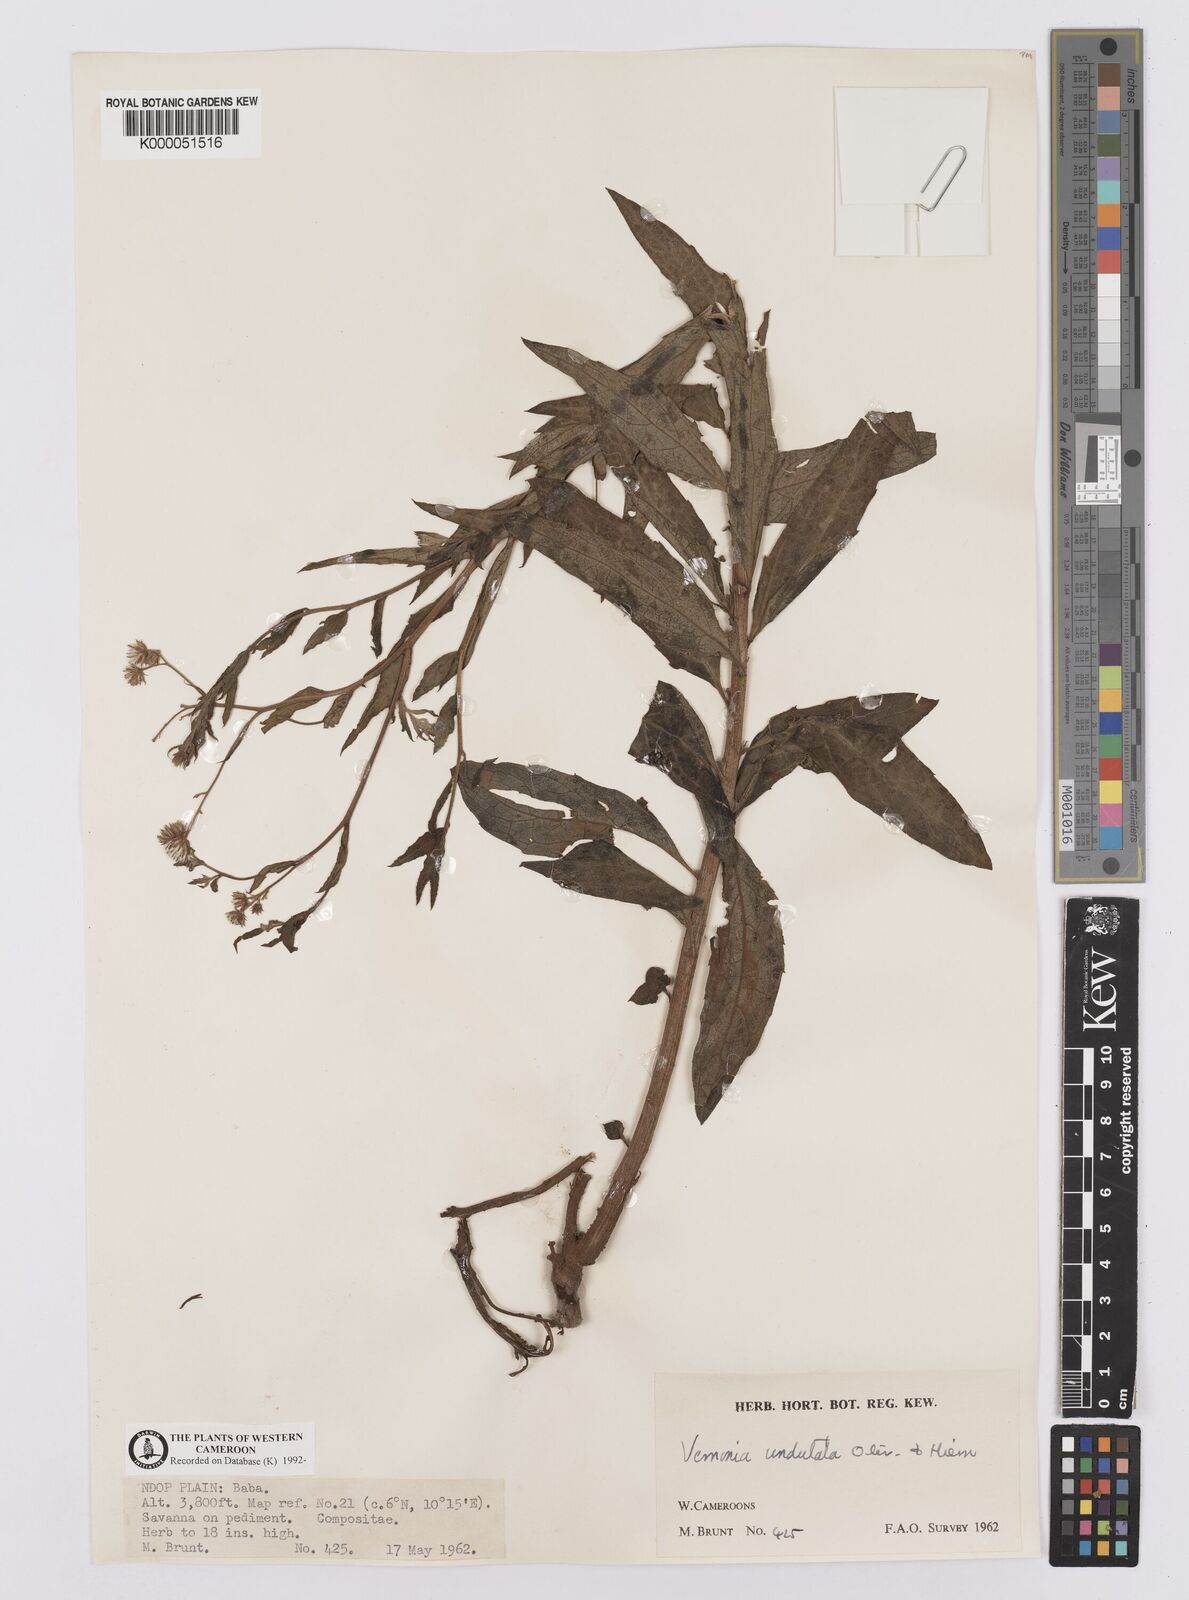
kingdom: Plantae
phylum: Tracheophyta
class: Magnoliopsida
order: Asterales
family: Asteraceae
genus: Vernonia
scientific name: Vernonia golungensis
